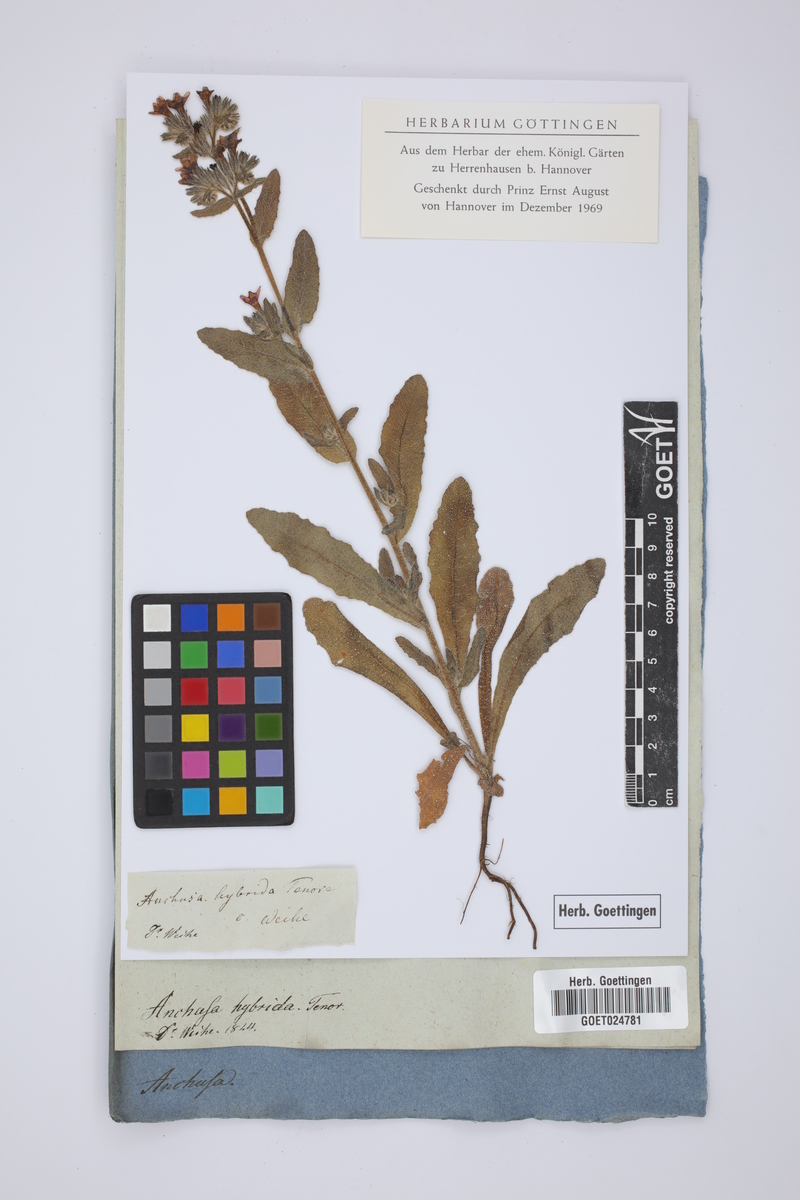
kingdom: Plantae
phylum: Tracheophyta
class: Magnoliopsida
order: Boraginales
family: Boraginaceae
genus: Anchusa
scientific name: Anchusa undulata
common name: Undulate alkanet
